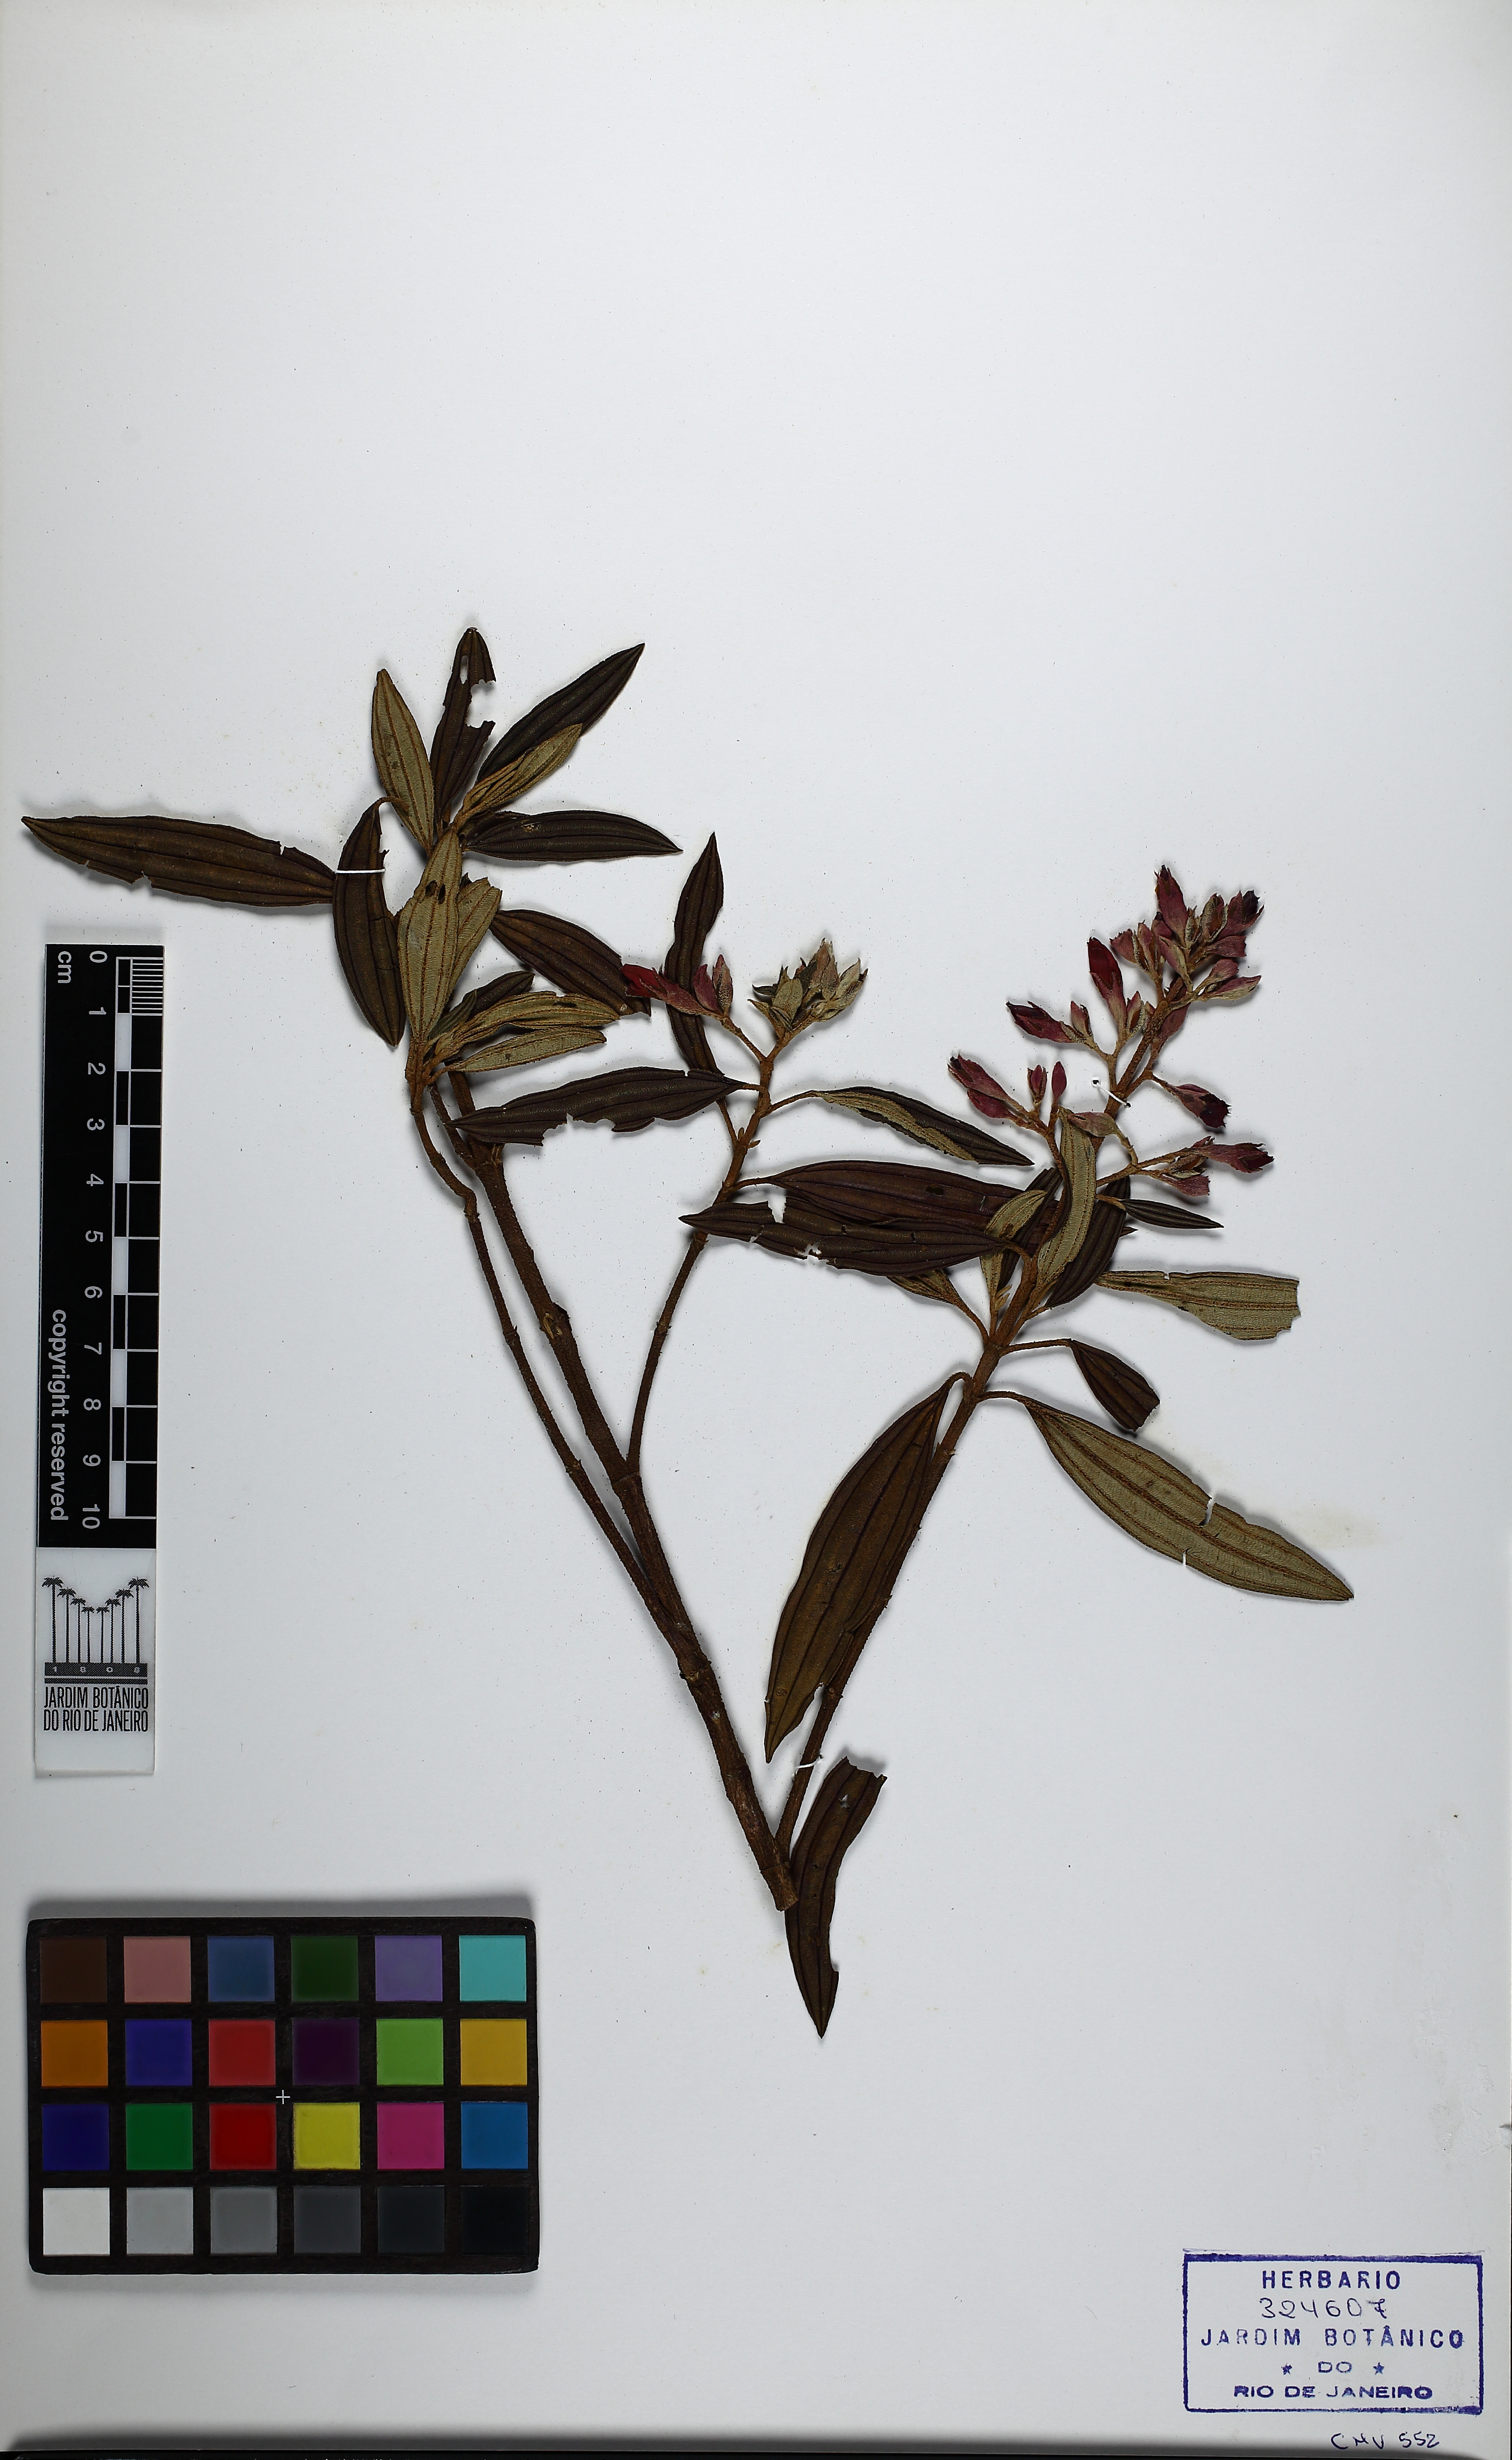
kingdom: Plantae
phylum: Tracheophyta
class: Magnoliopsida
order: Myrtales
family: Melastomataceae
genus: Pleroma
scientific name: Pleroma fissinervium
